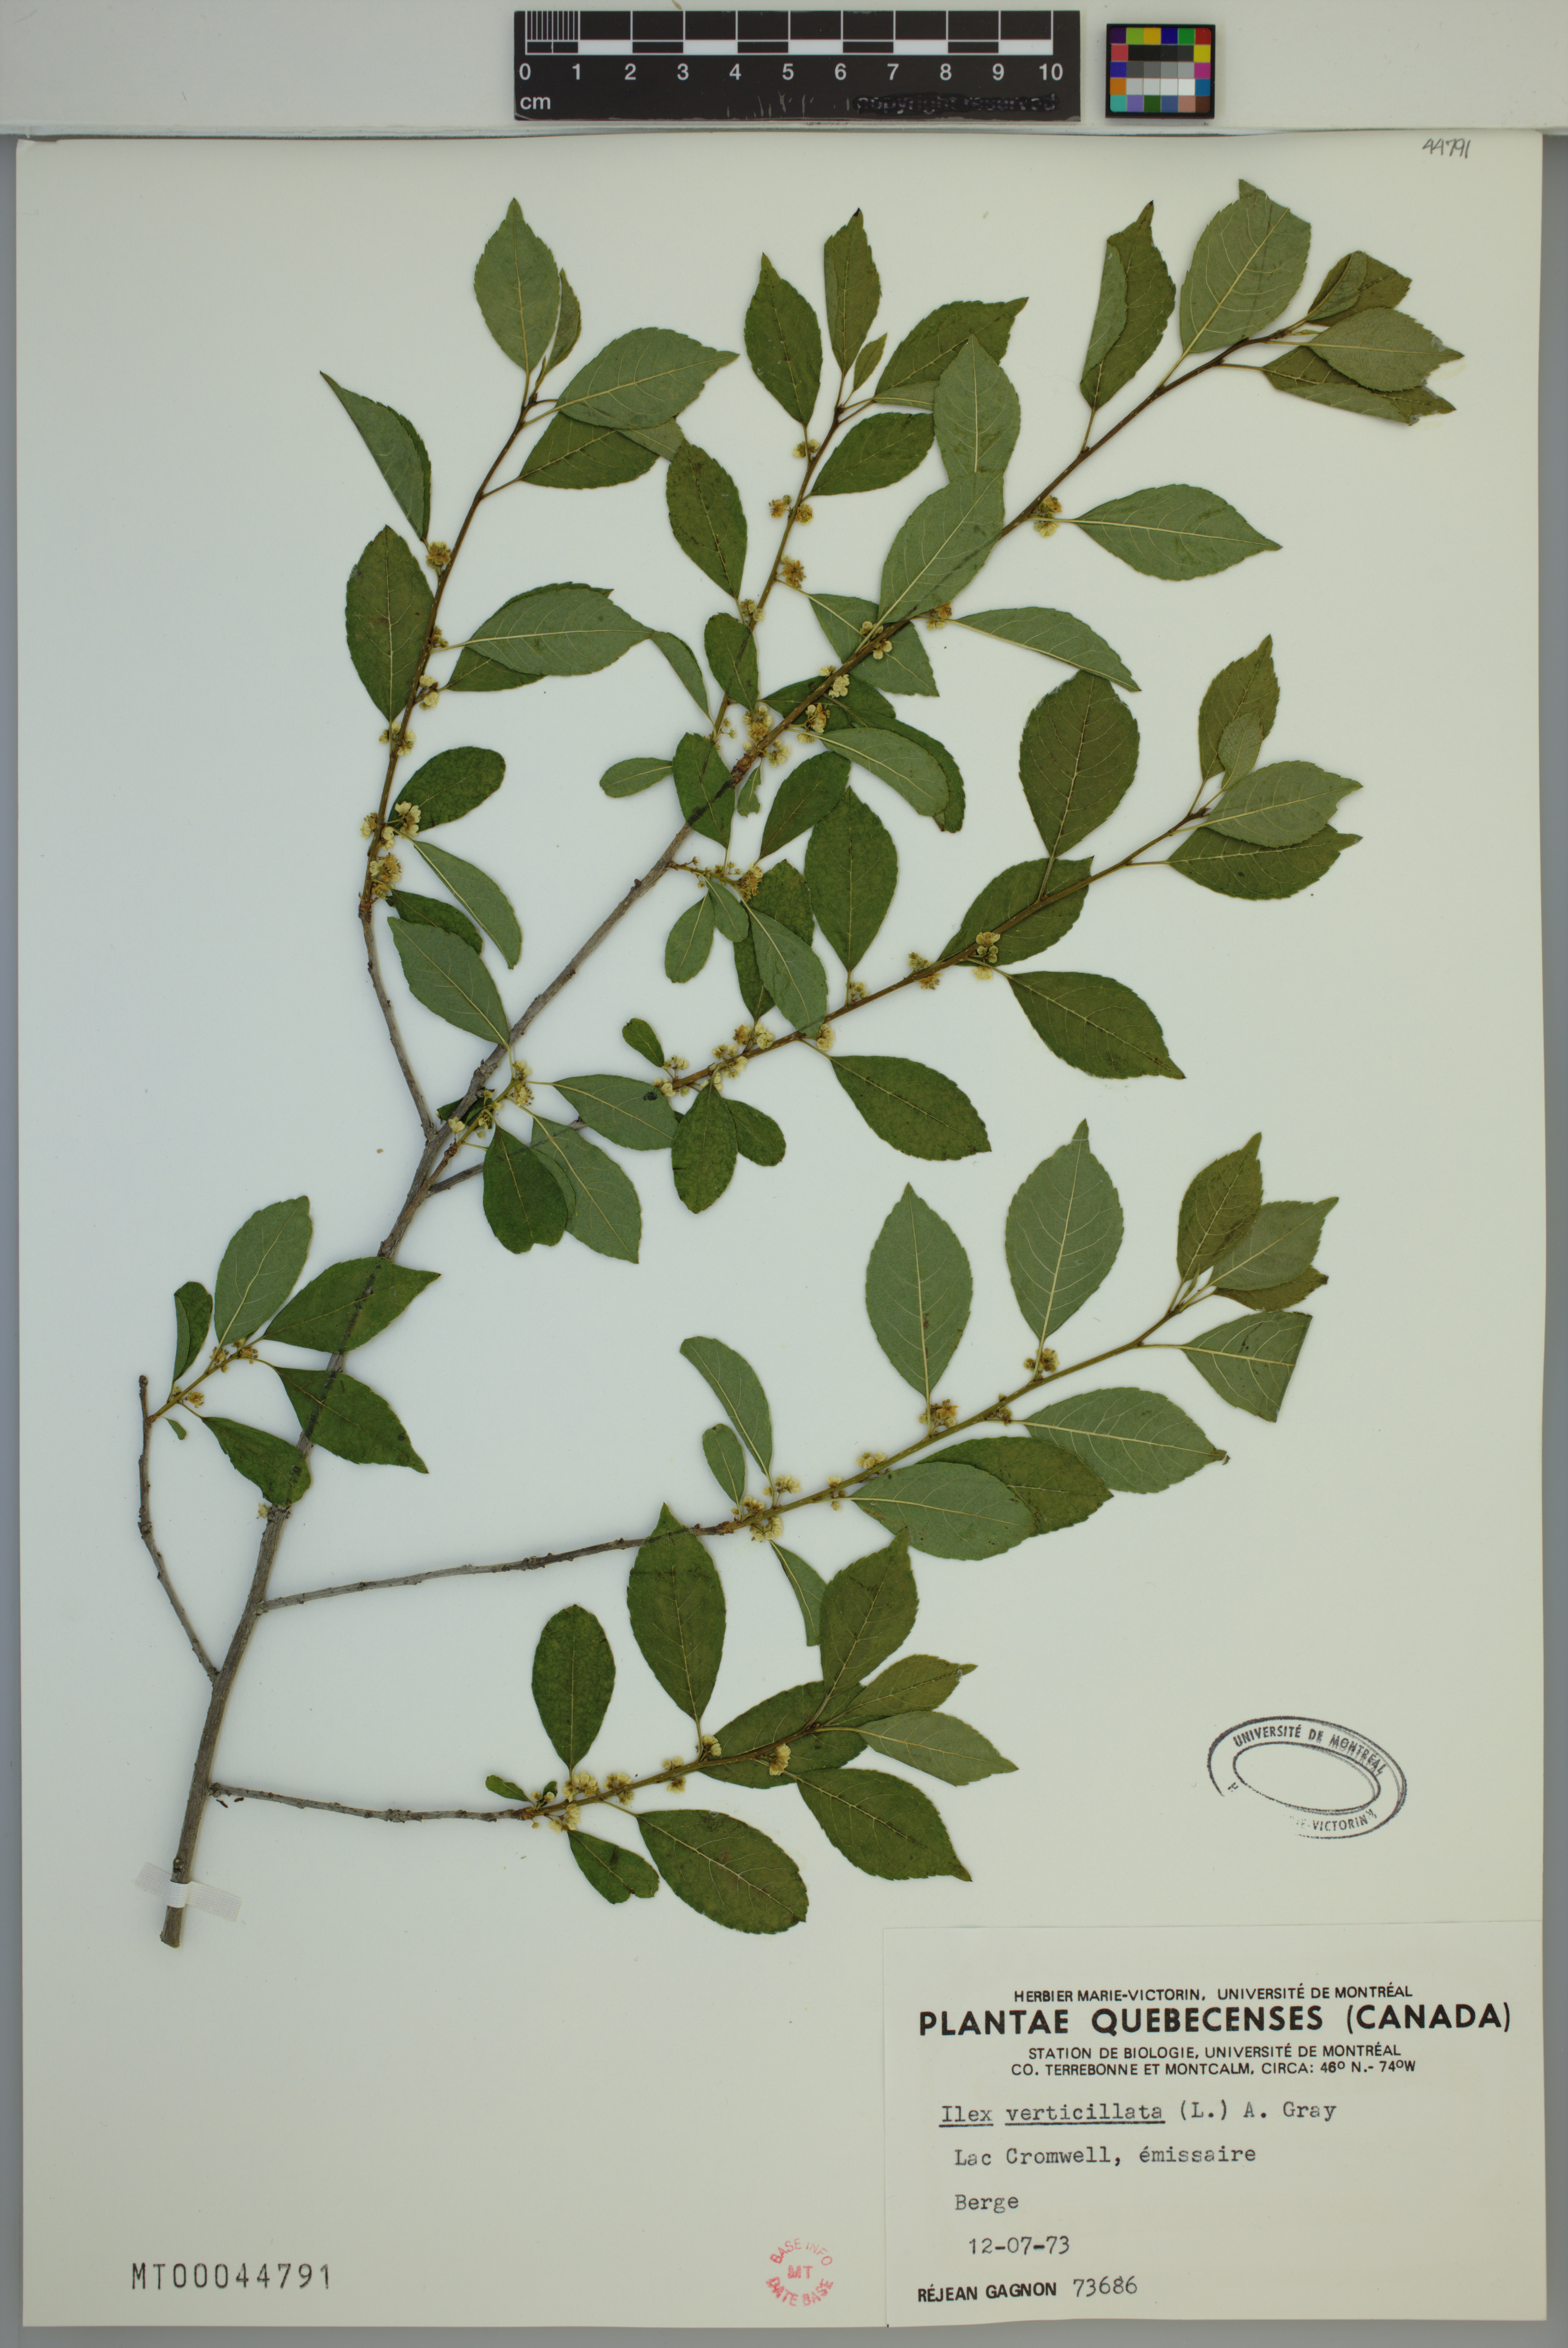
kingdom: Plantae
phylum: Tracheophyta
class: Magnoliopsida
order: Aquifoliales
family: Aquifoliaceae
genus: Ilex
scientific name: Ilex verticillata
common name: Virginia winterberry
